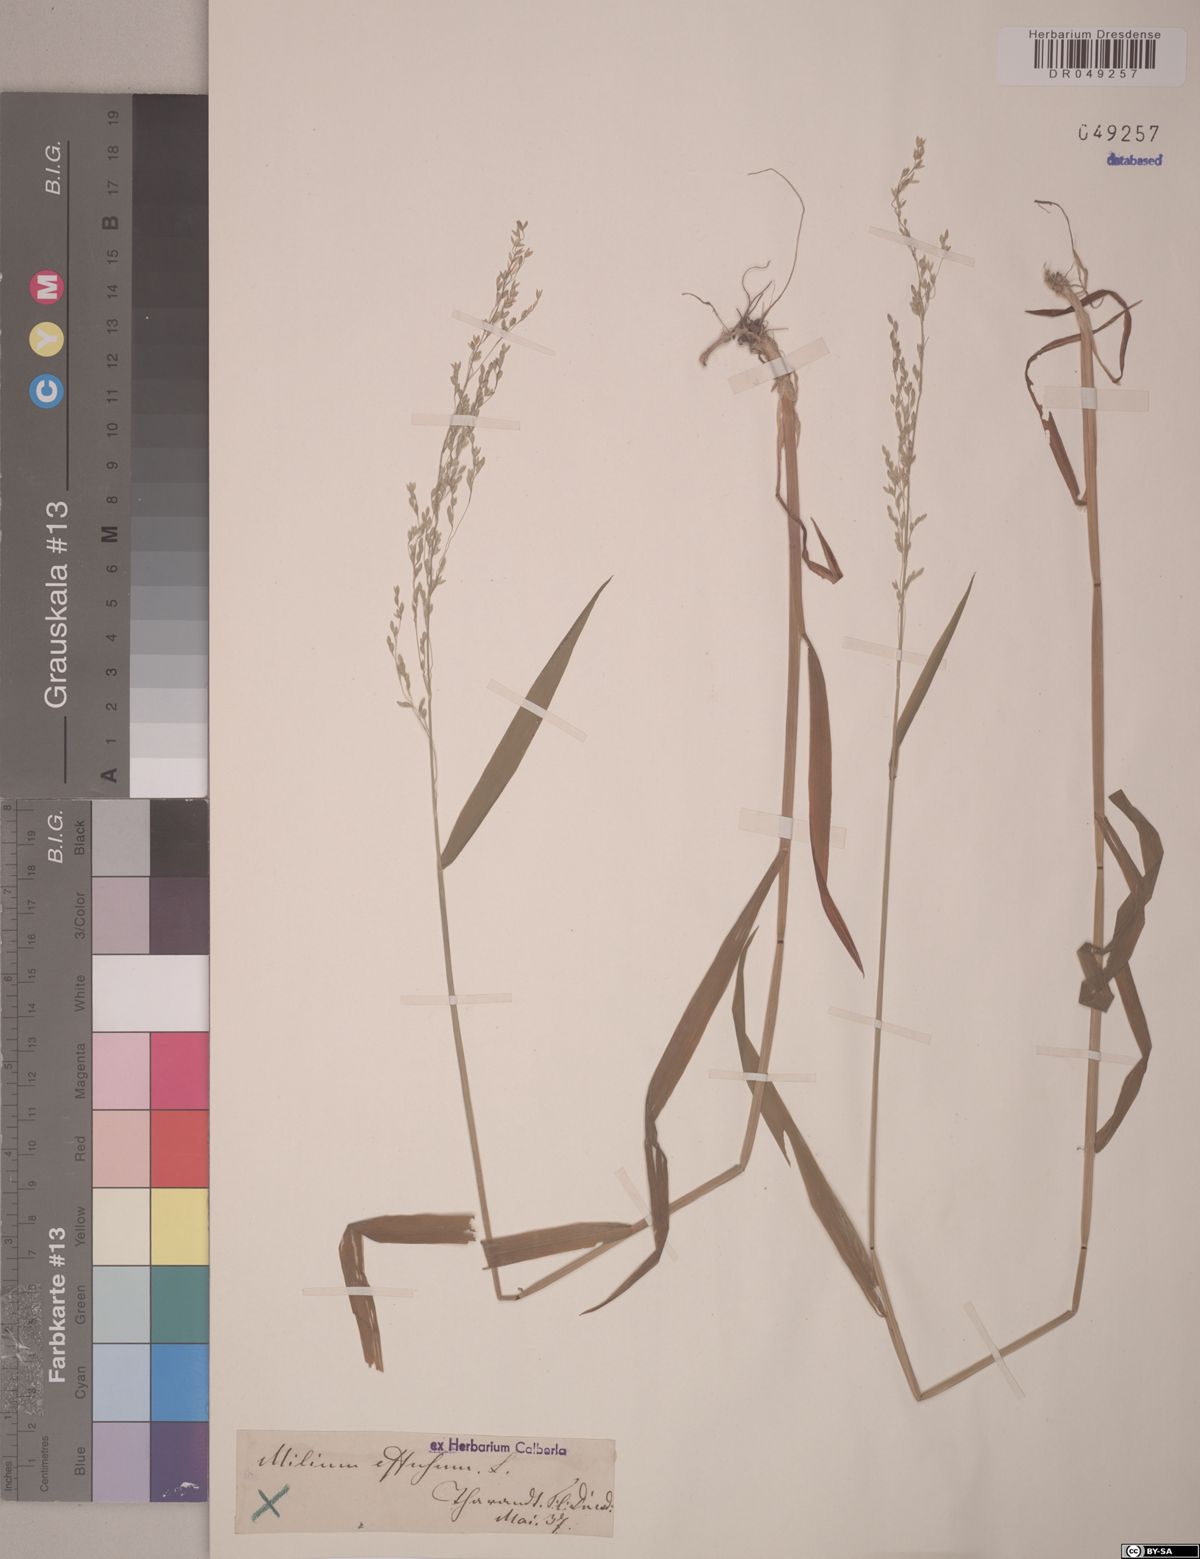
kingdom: Plantae
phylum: Tracheophyta
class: Liliopsida
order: Poales
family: Poaceae
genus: Milium
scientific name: Milium effusum
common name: Wood millet
